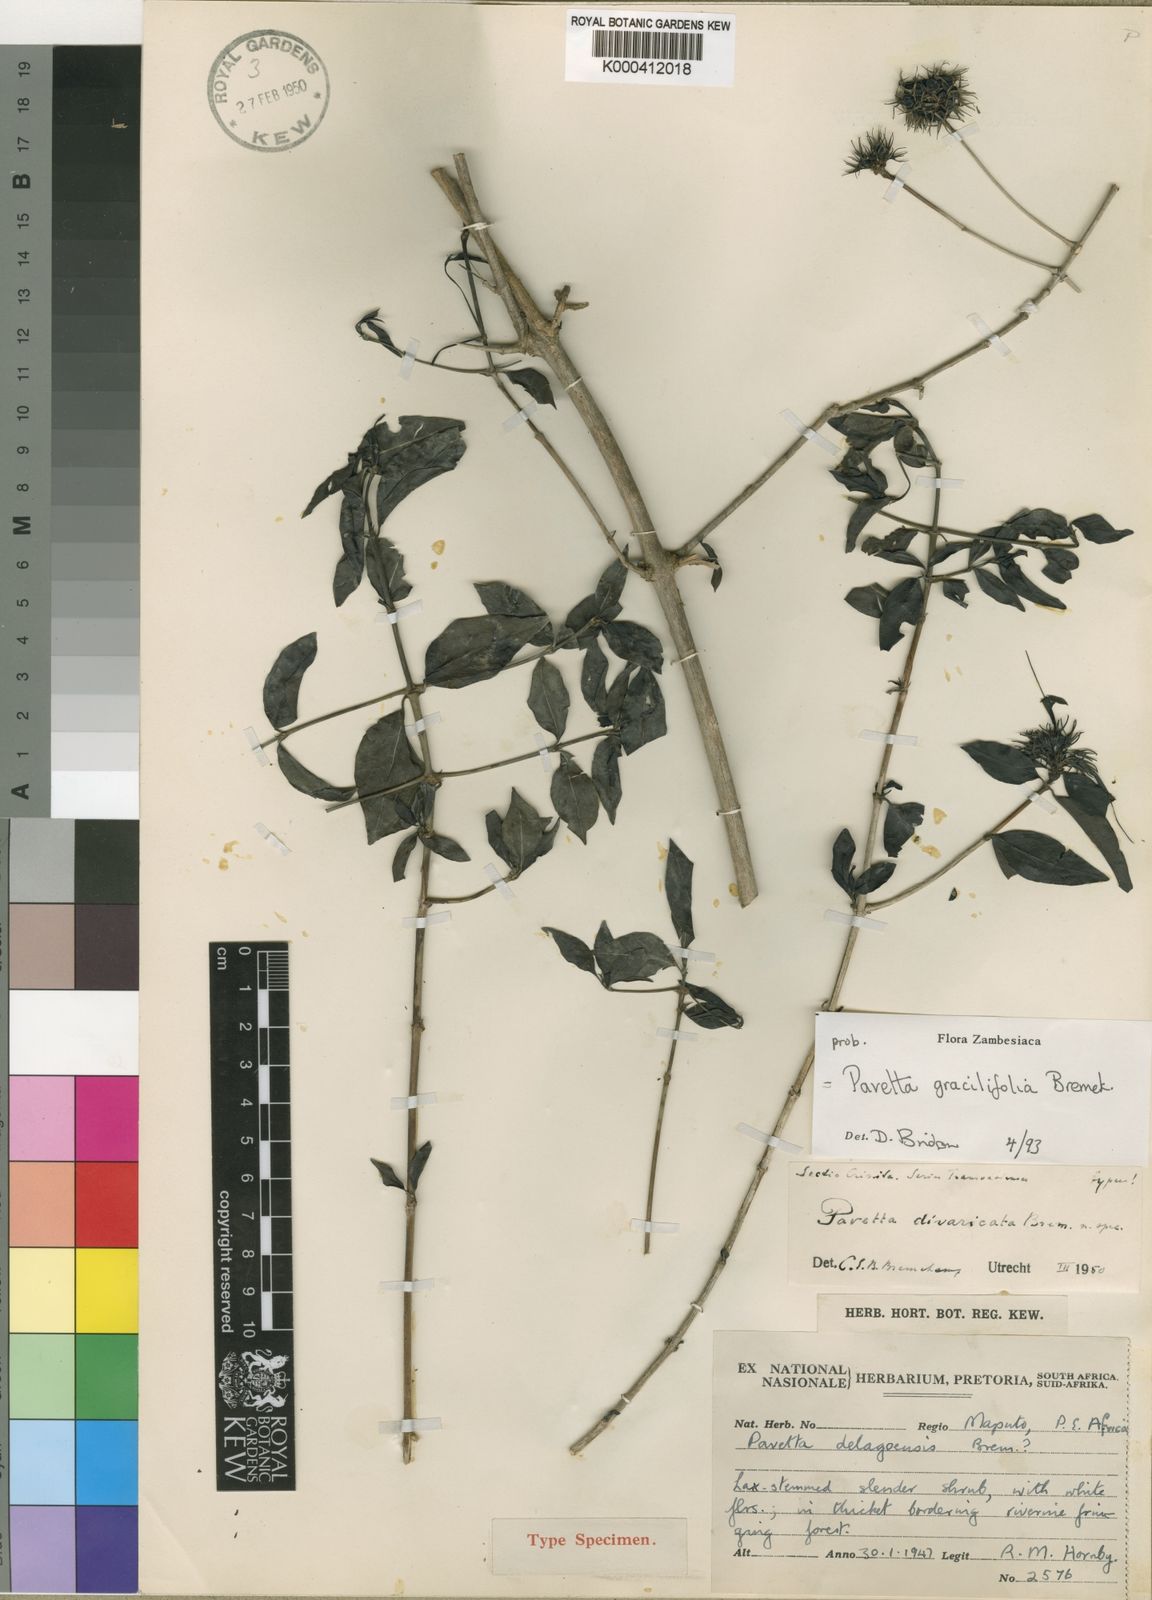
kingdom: Plantae
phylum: Tracheophyta
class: Magnoliopsida
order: Gentianales
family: Rubiaceae
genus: Pavetta
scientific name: Pavetta gracilifolia
